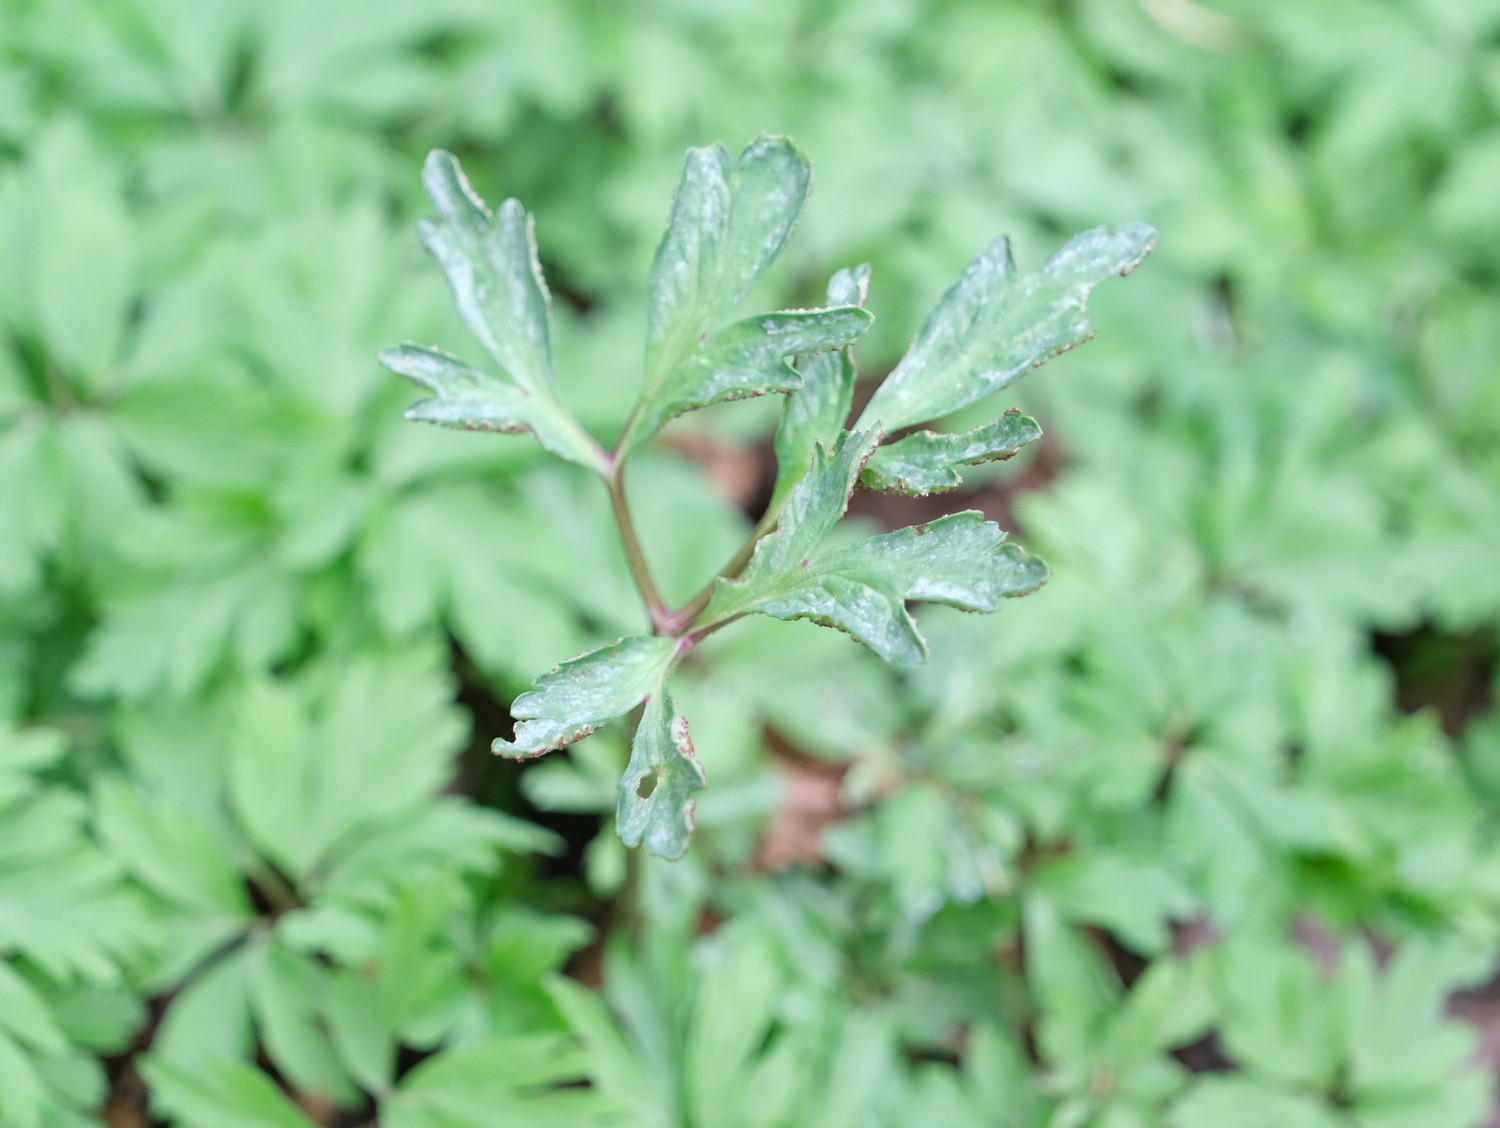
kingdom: Fungi
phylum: Basidiomycota
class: Pucciniomycetes
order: Pucciniales
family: Tranzscheliaceae
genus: Tranzschelia
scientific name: Tranzschelia anemones
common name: anemone-knæksporerust
